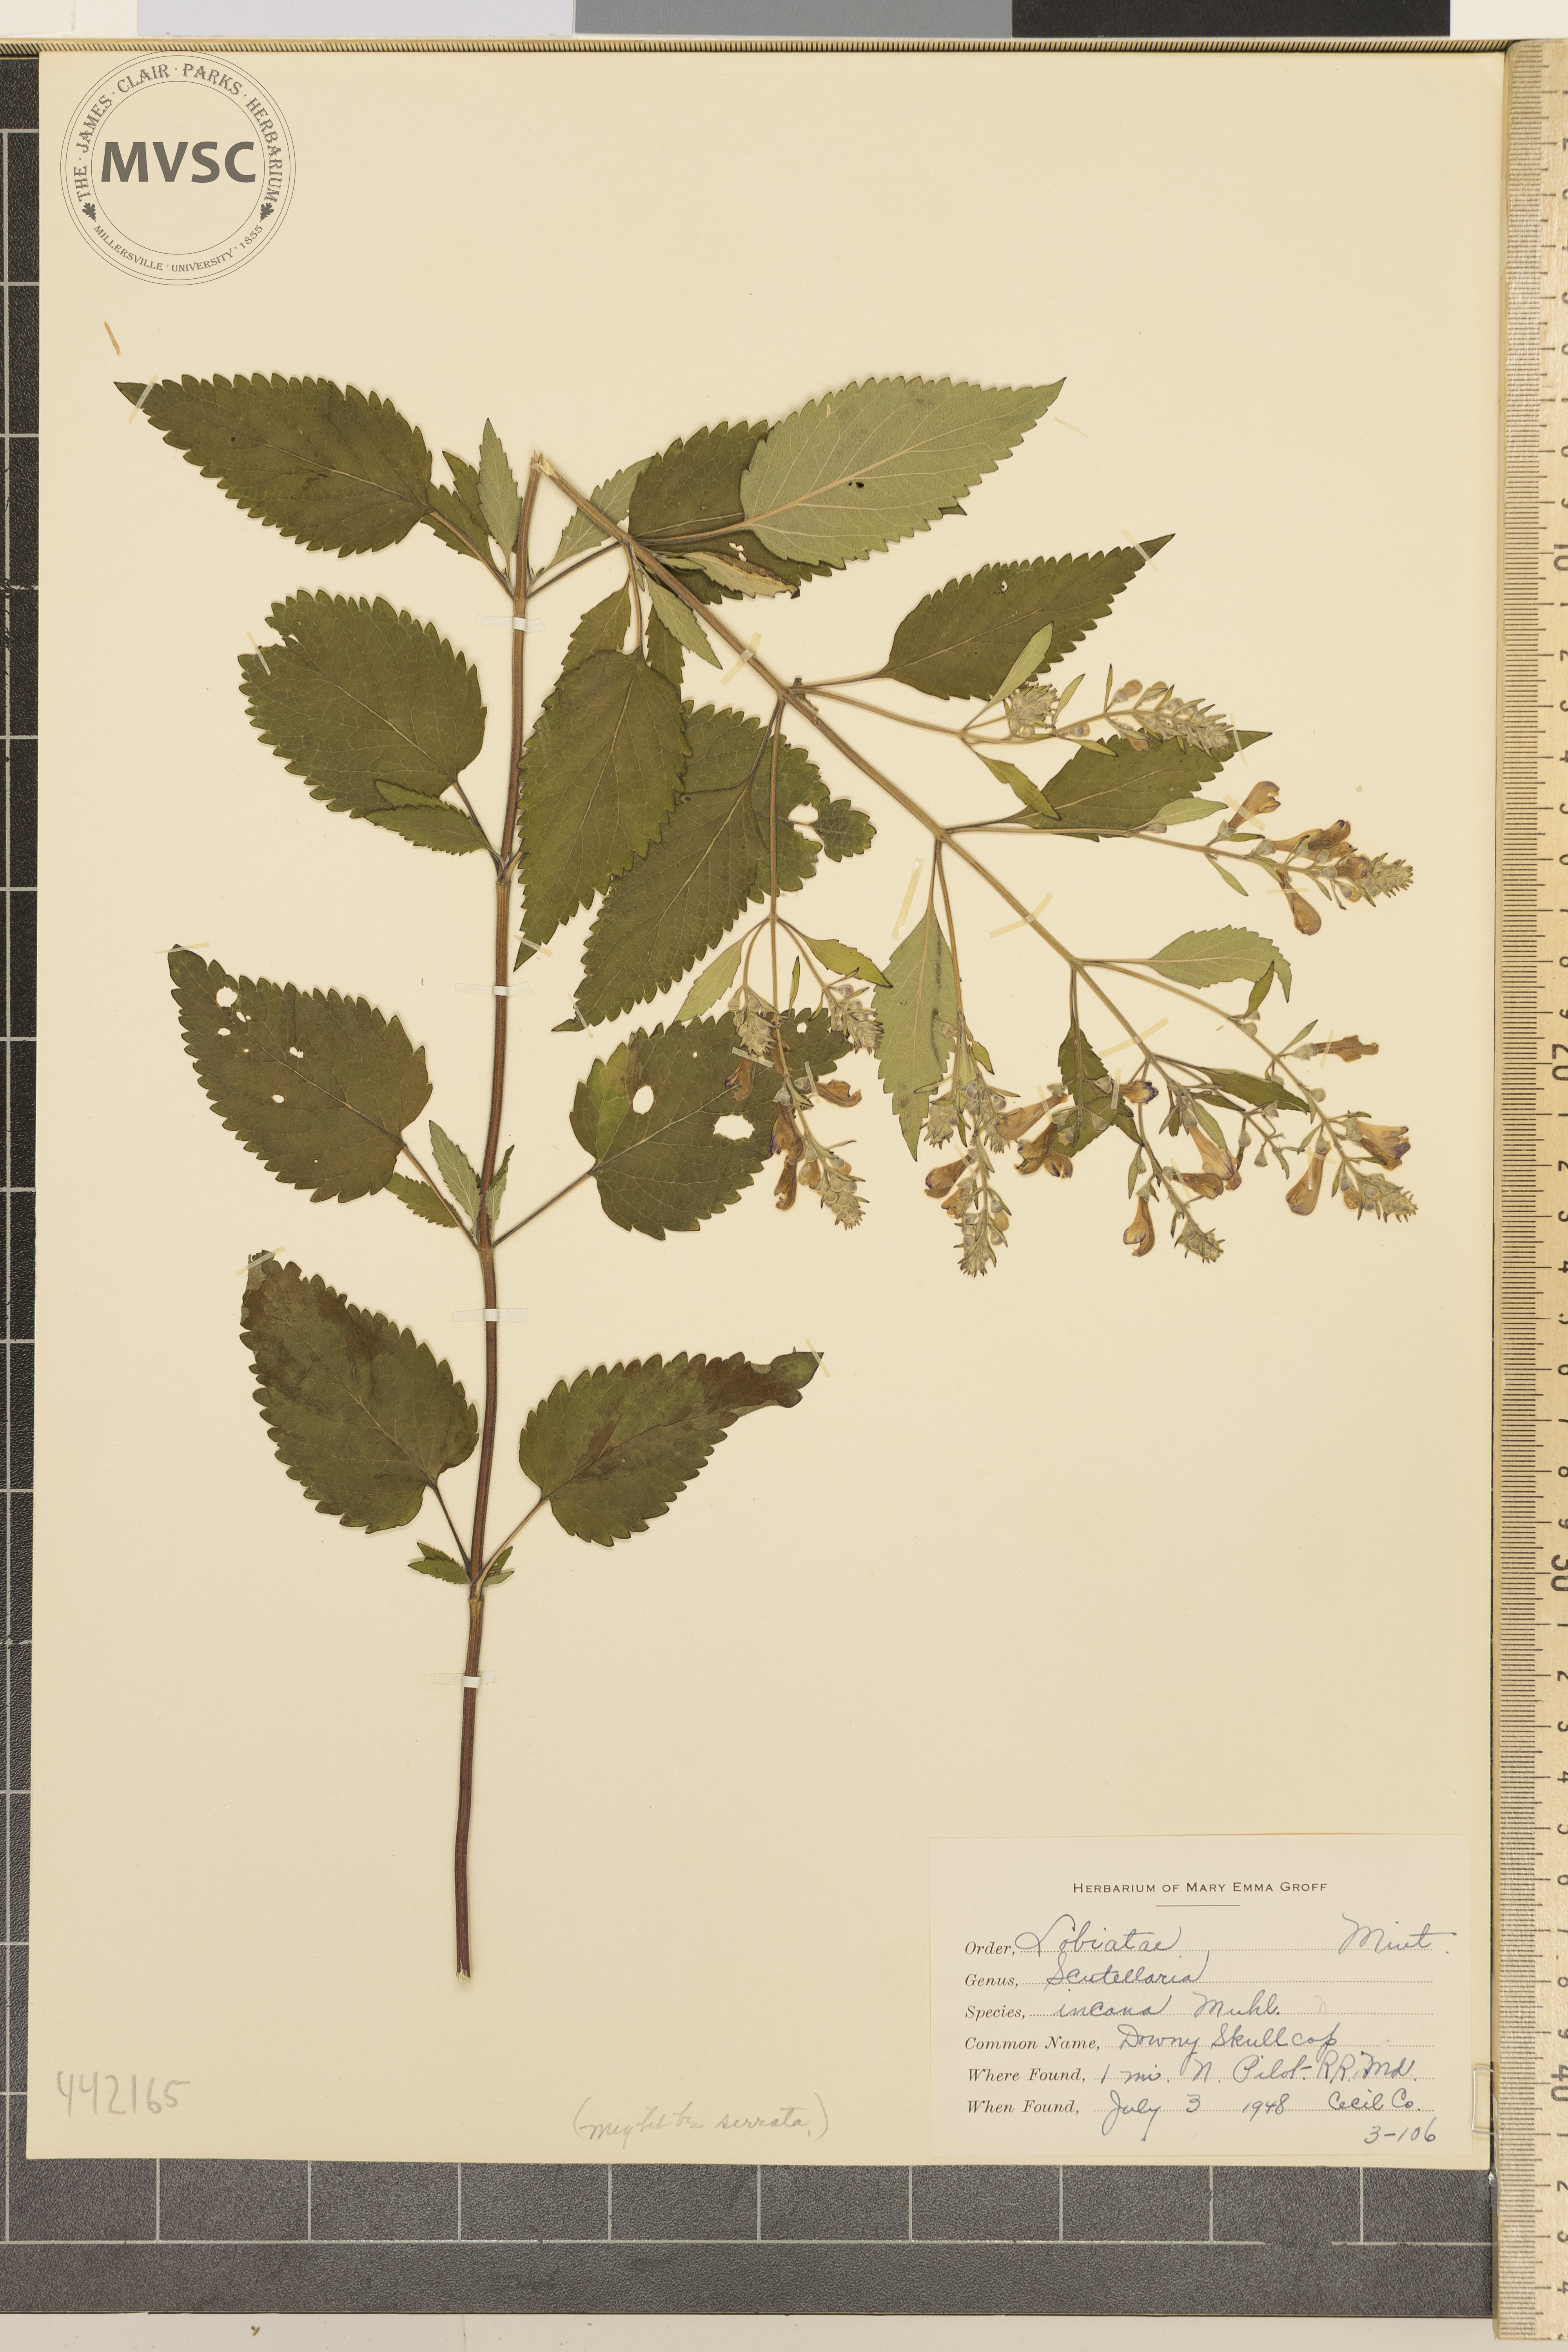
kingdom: Plantae
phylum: Tracheophyta
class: Magnoliopsida
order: Lamiales
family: Lamiaceae
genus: Scutellaria
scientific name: Scutellaria elliptica
